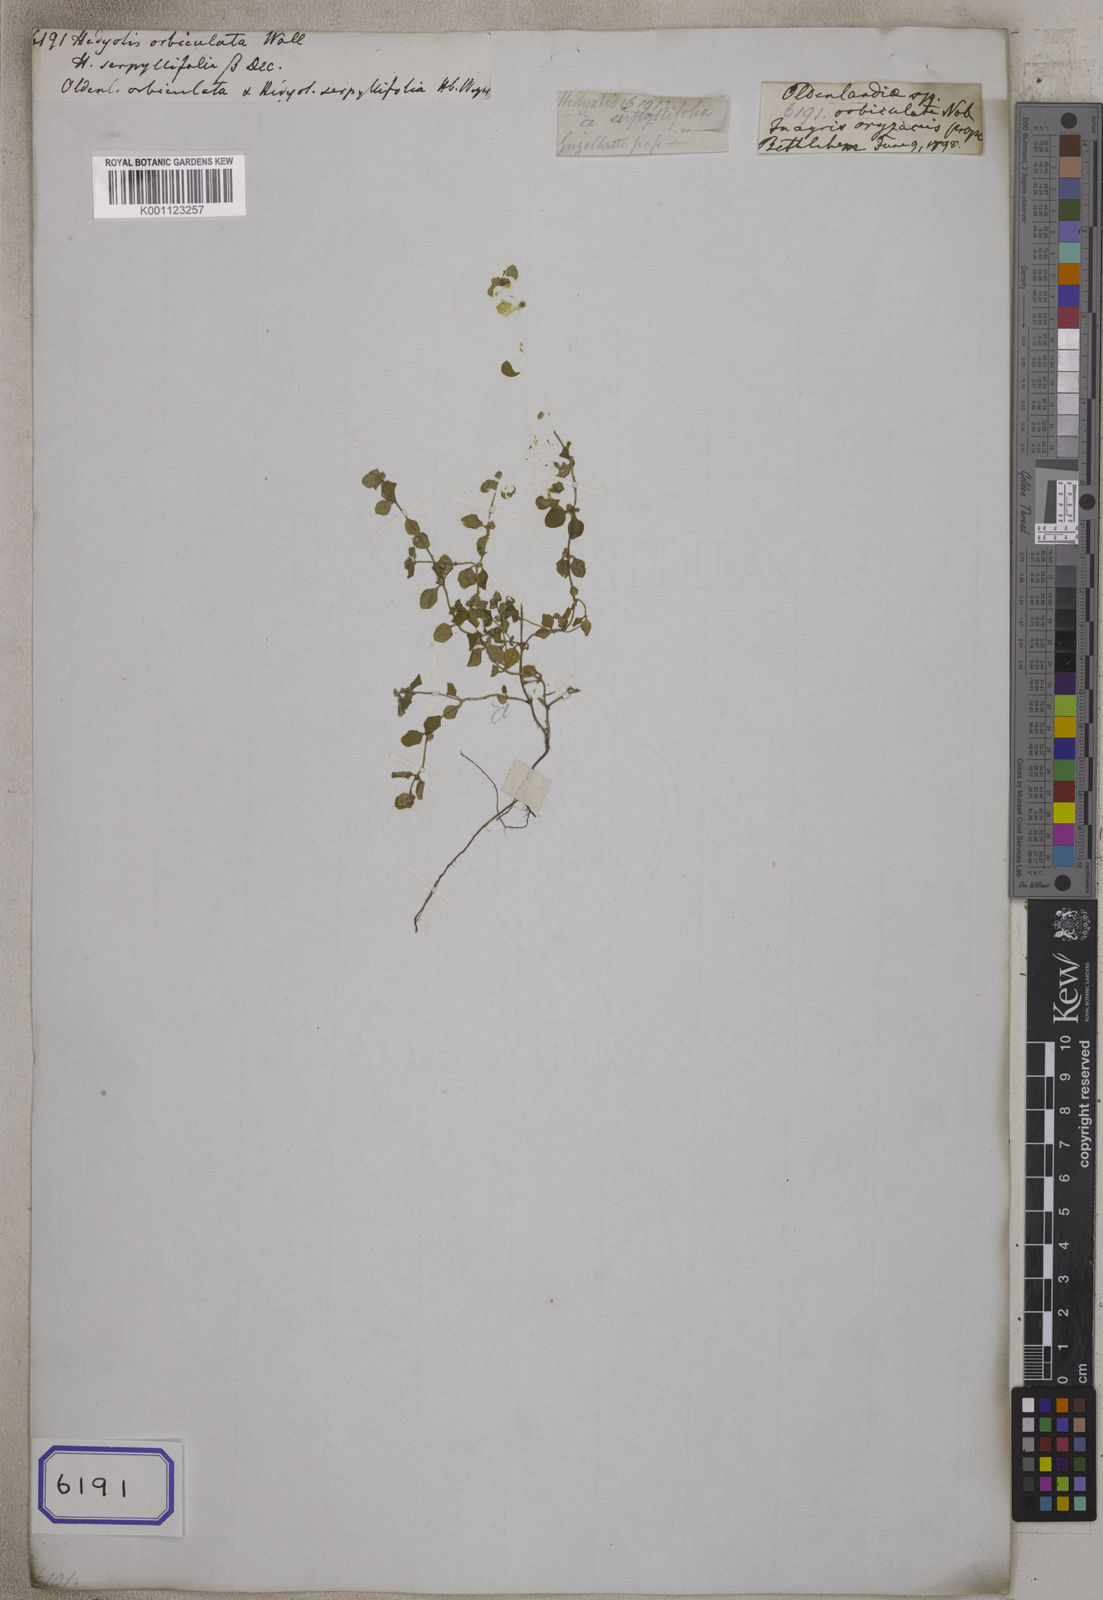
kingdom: Plantae
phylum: Tracheophyta
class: Magnoliopsida
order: Gentianales
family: Rubiaceae
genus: Edrastima
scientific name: Edrastima trinervia
